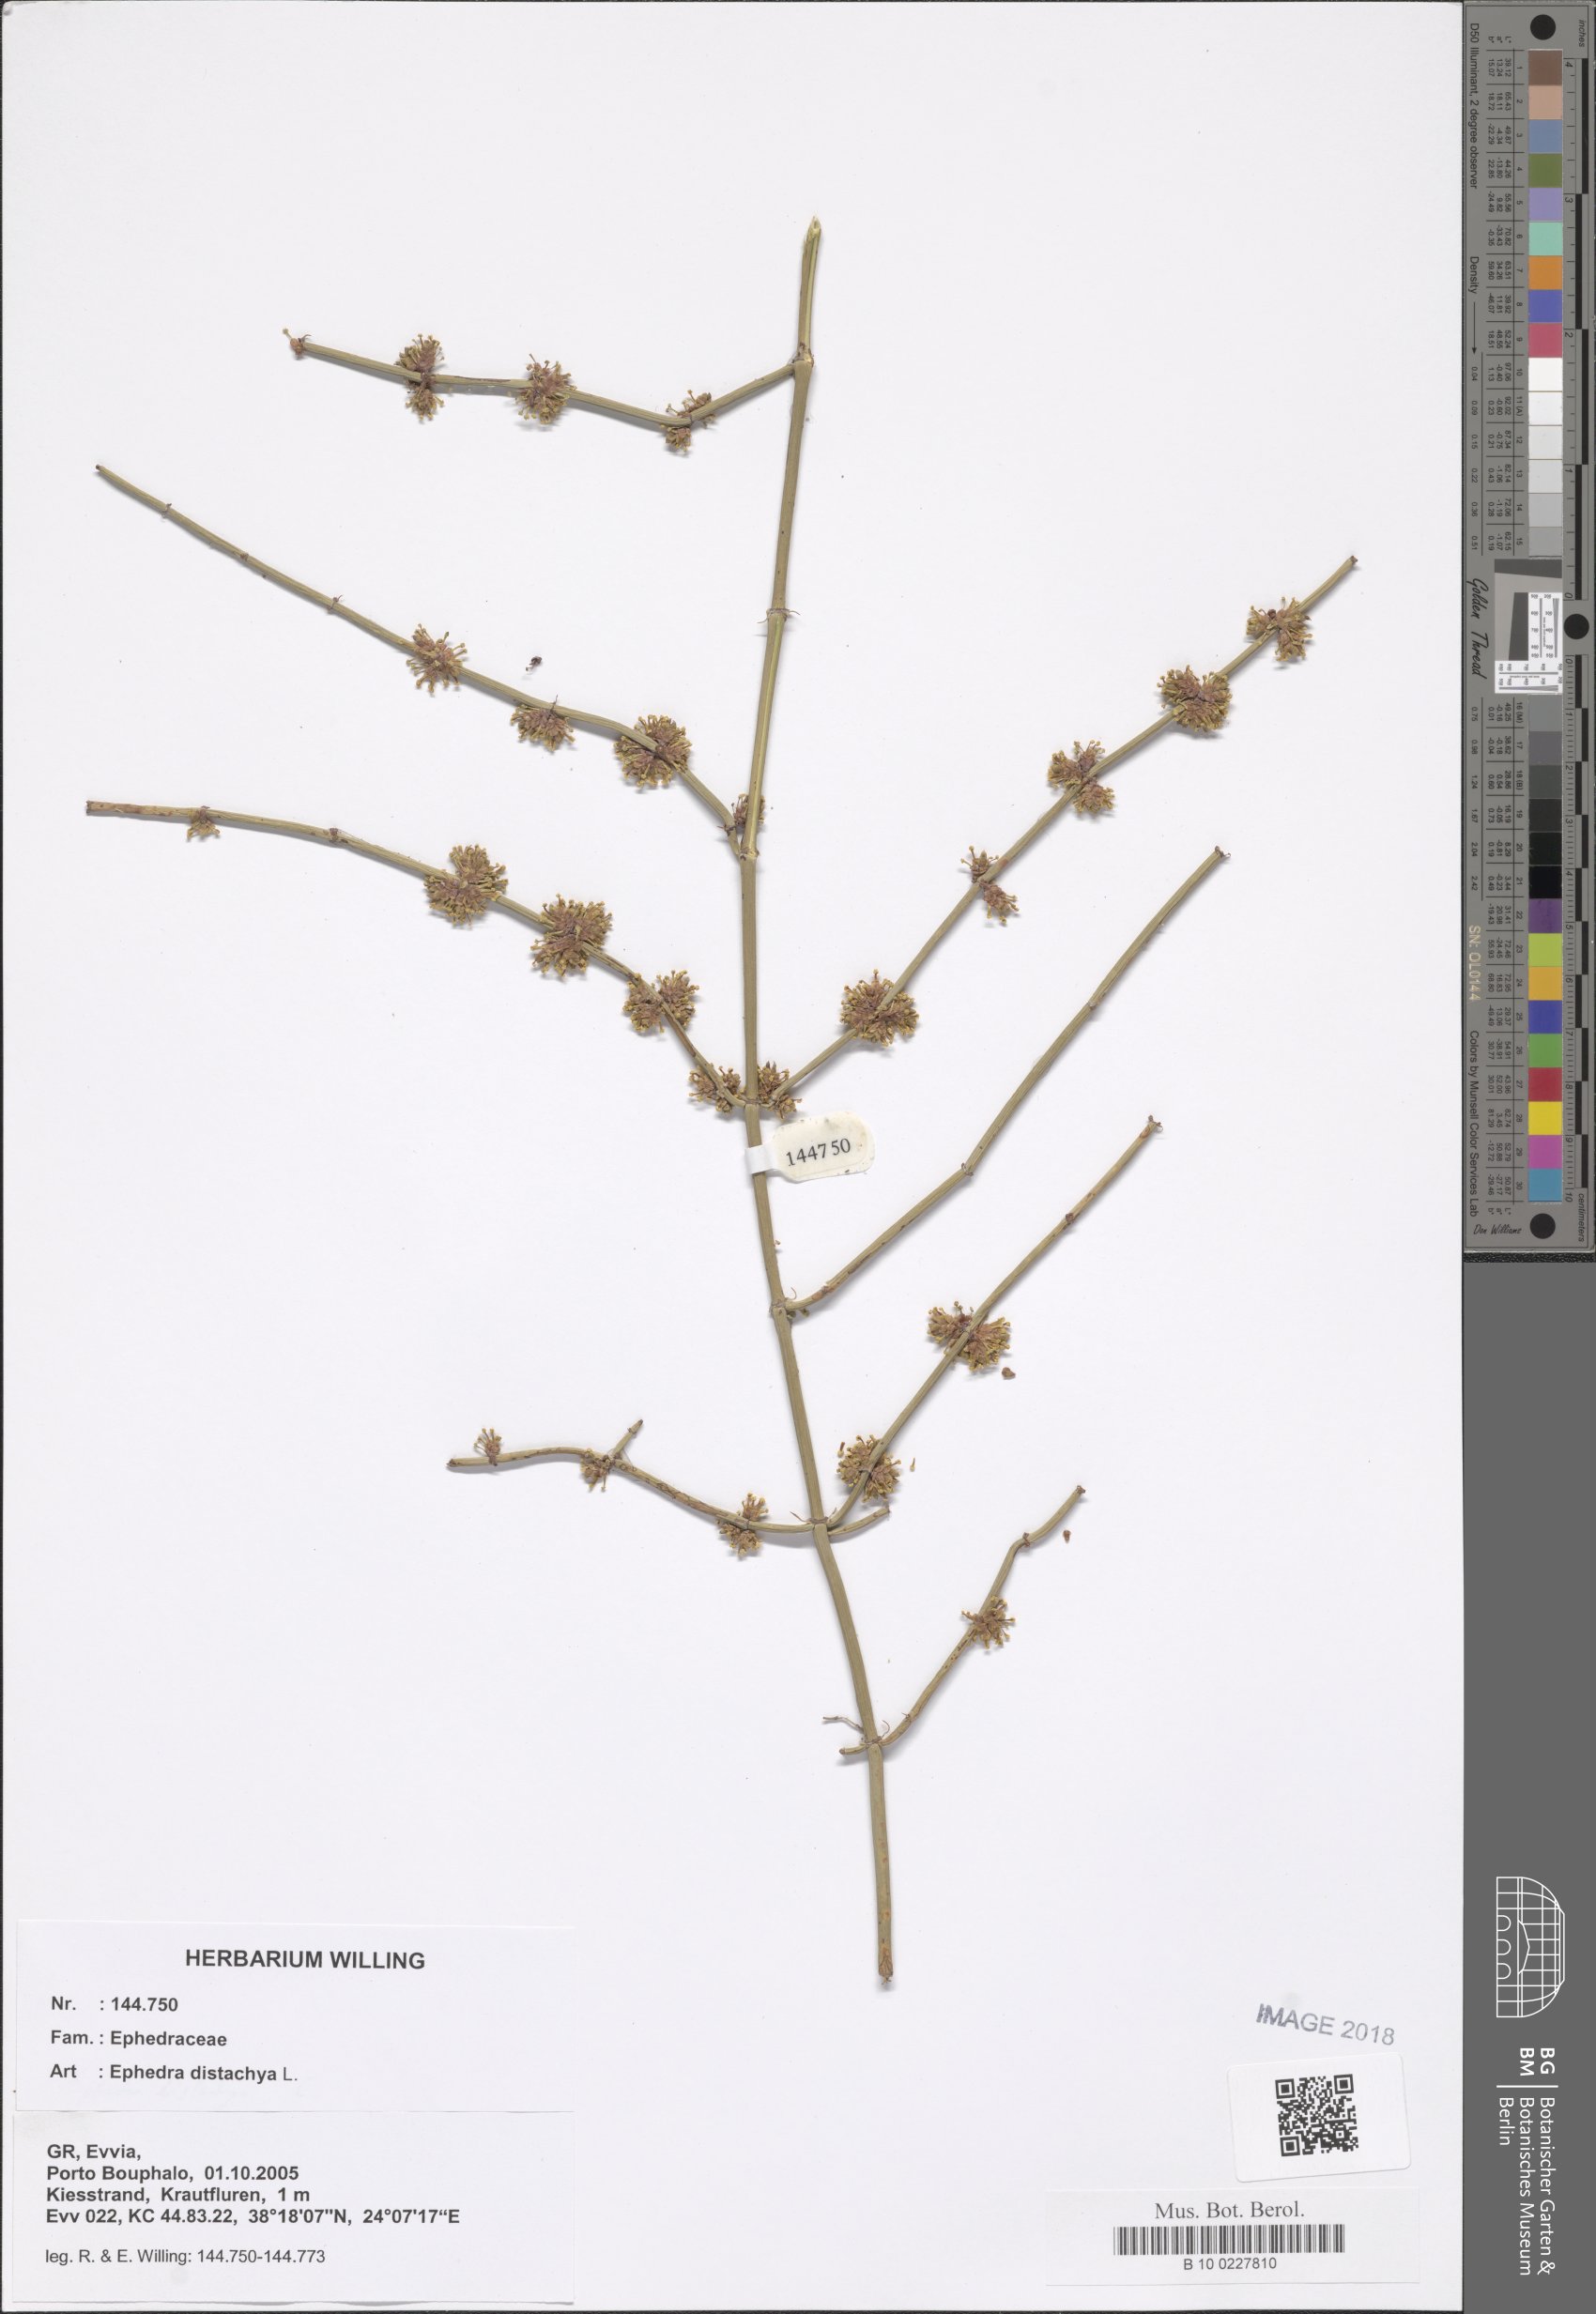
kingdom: Plantae
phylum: Tracheophyta
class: Gnetopsida
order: Ephedrales
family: Ephedraceae
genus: Ephedra
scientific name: Ephedra foeminea
